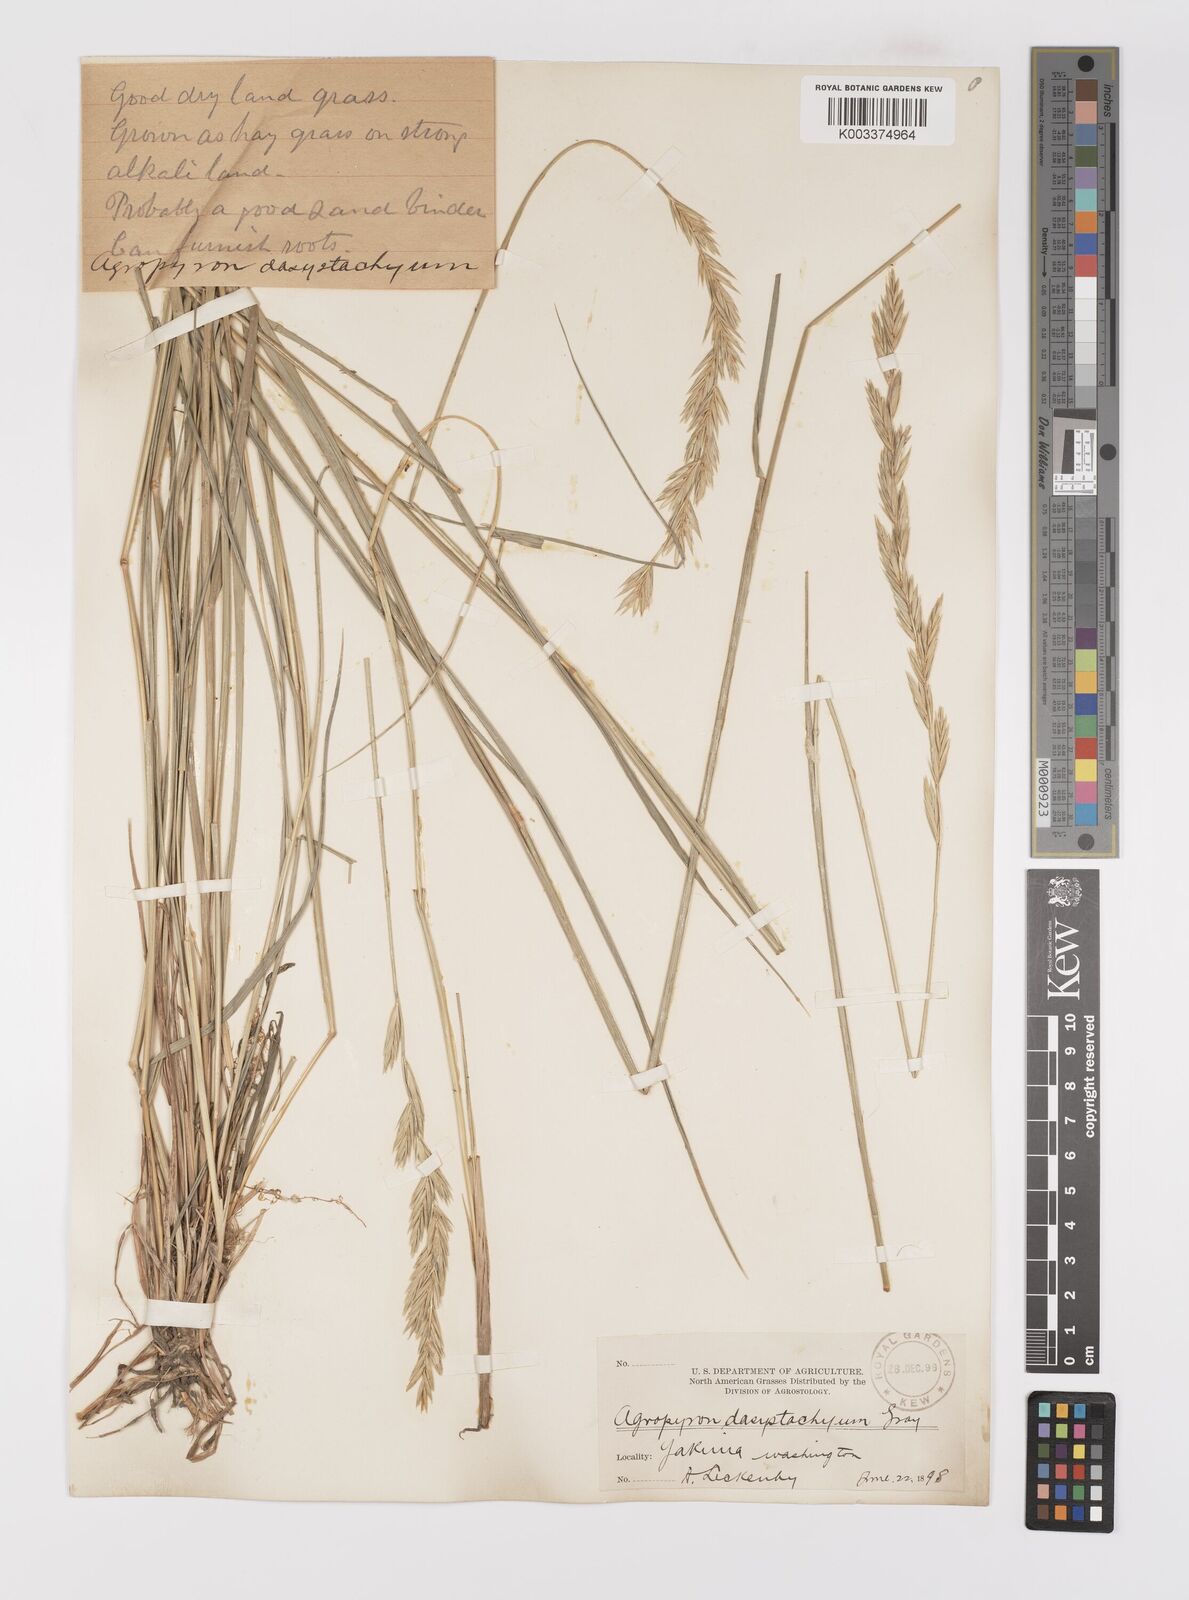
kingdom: Plantae
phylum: Tracheophyta
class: Liliopsida
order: Poales
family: Poaceae
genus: Elymus
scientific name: Elymus lanceolatus
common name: Thick-spike wheatgrass
